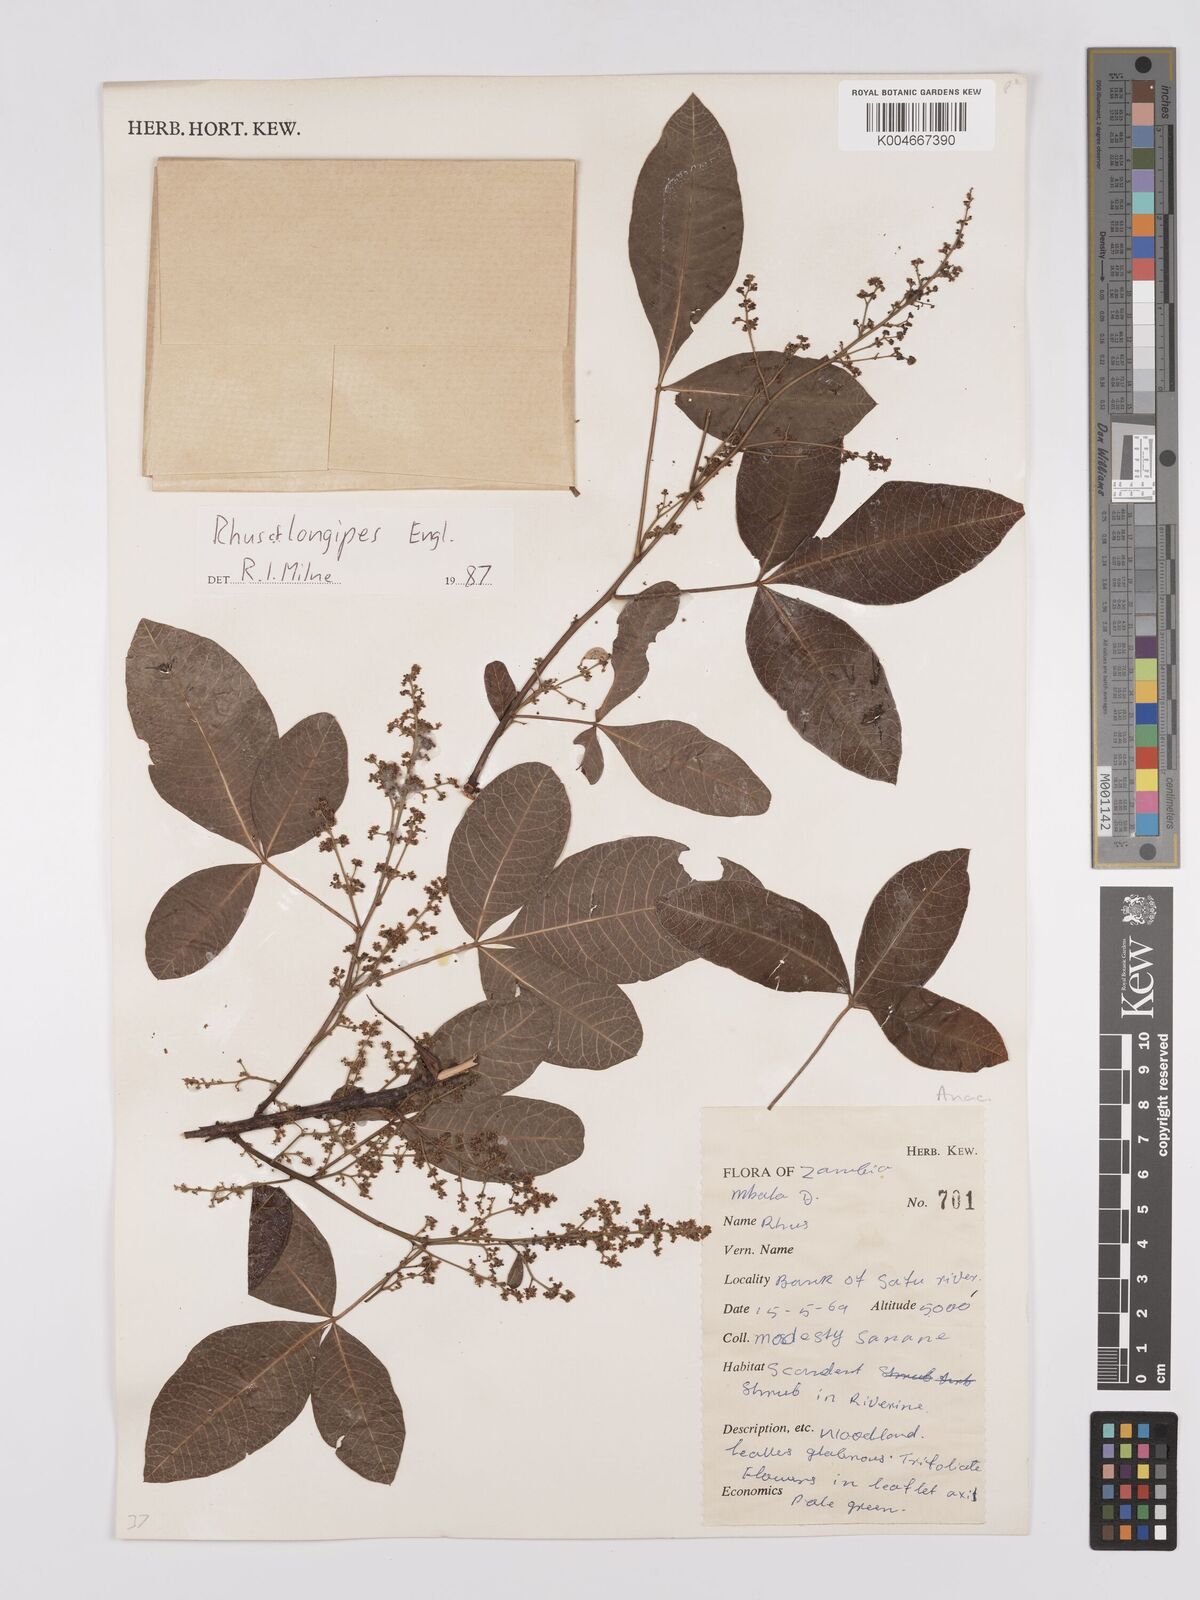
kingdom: Plantae
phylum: Tracheophyta
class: Magnoliopsida
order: Sapindales
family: Anacardiaceae
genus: Searsia
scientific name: Searsia longipes
